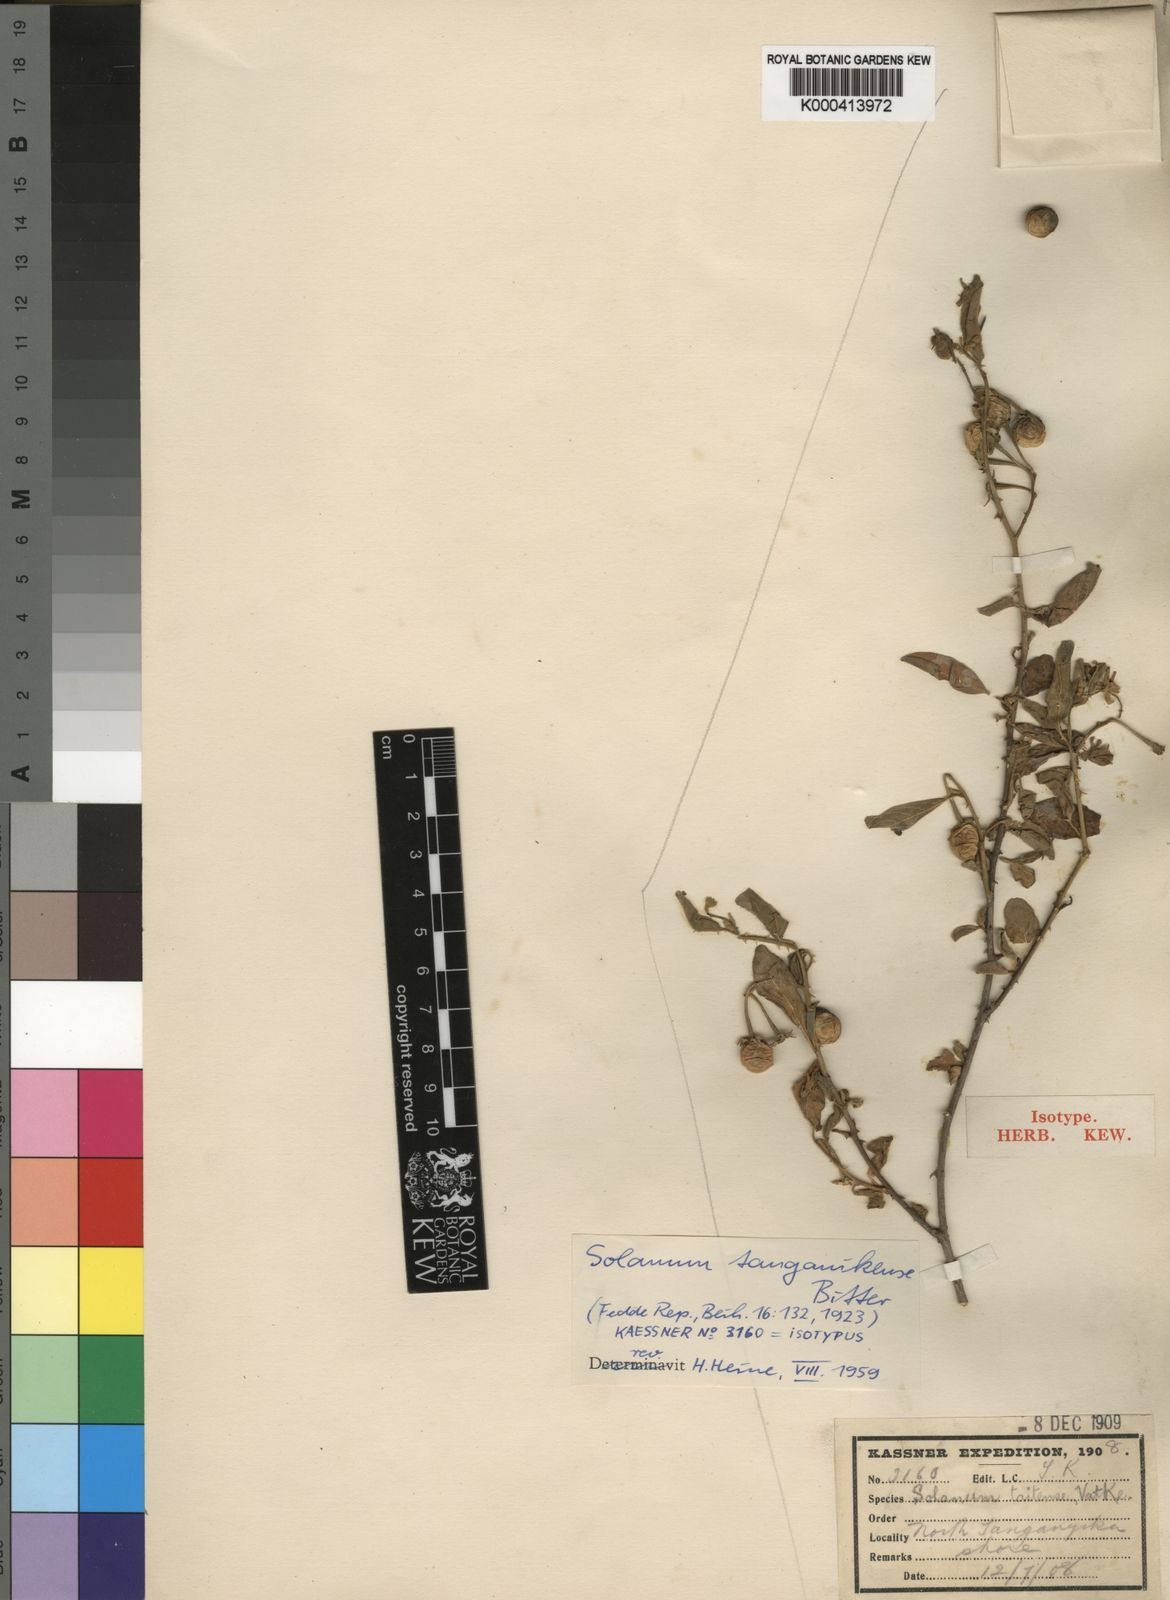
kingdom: Plantae
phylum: Tracheophyta
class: Magnoliopsida
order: Solanales
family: Solanaceae
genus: Solanum
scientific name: Solanum
